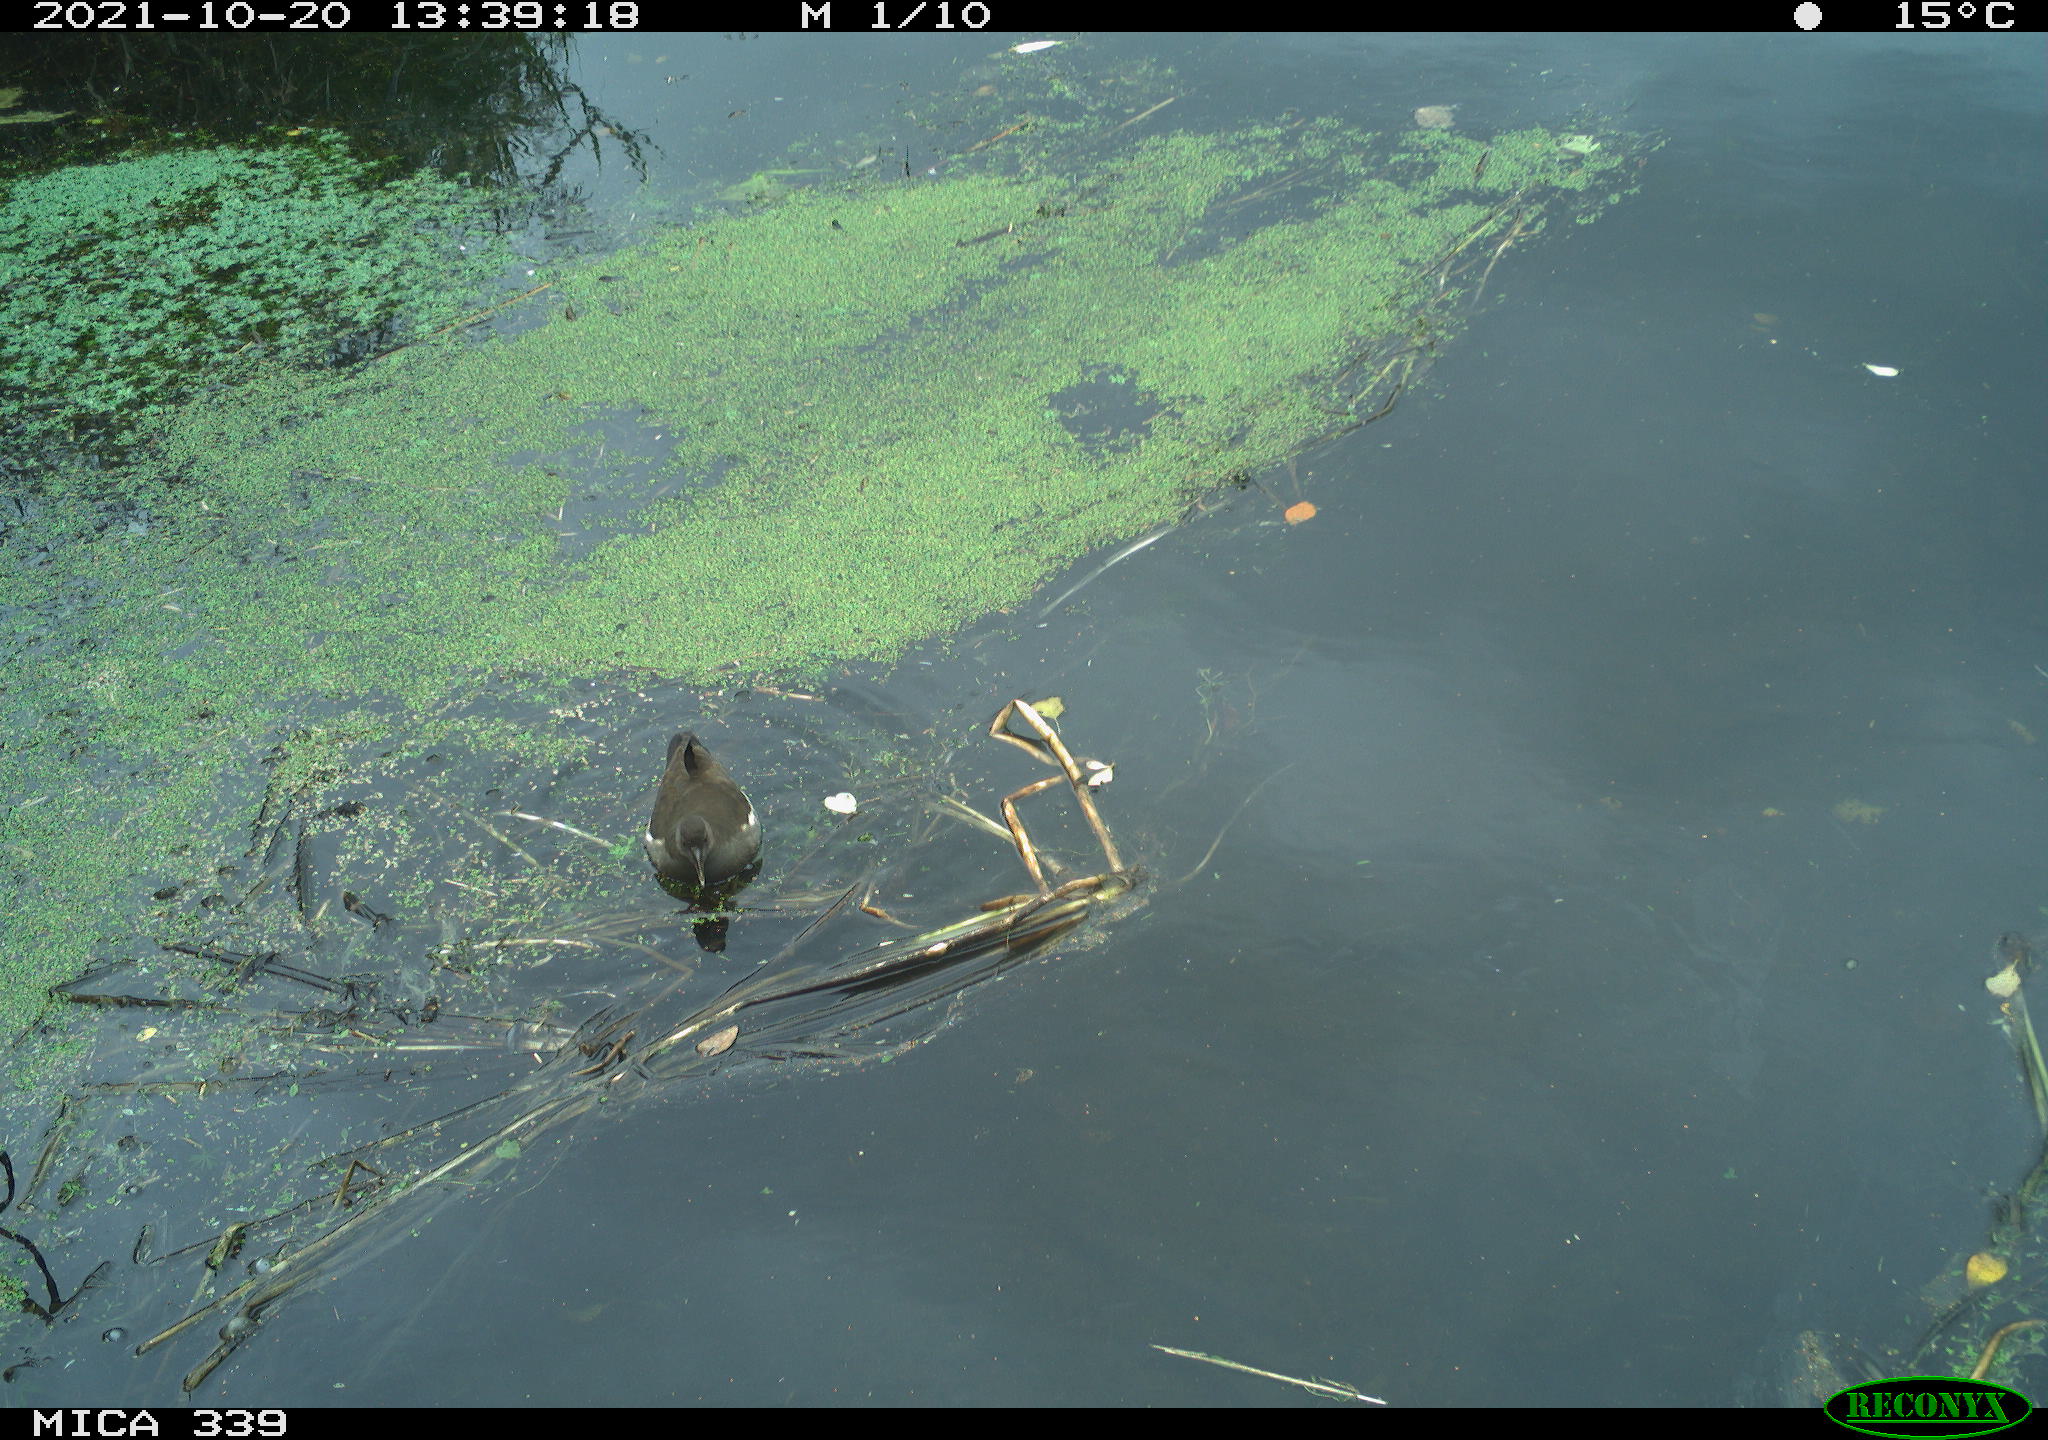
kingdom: Animalia
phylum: Chordata
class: Aves
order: Gruiformes
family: Rallidae
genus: Gallinula
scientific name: Gallinula chloropus
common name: Common moorhen
